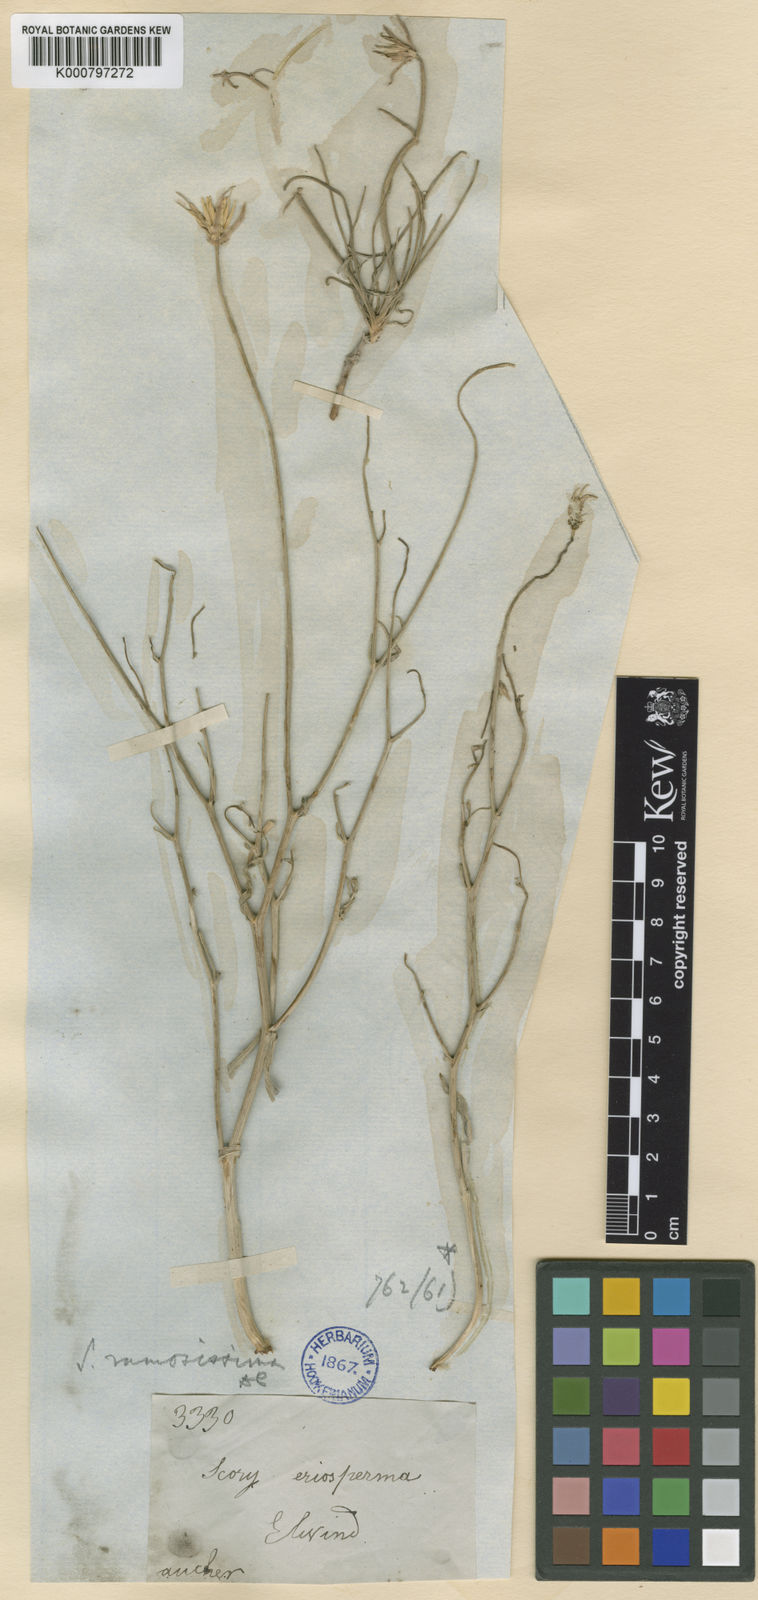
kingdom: Plantae
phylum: Tracheophyta
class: Magnoliopsida
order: Asterales
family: Asteraceae
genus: Gelasia
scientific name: Gelasia ramosissima
